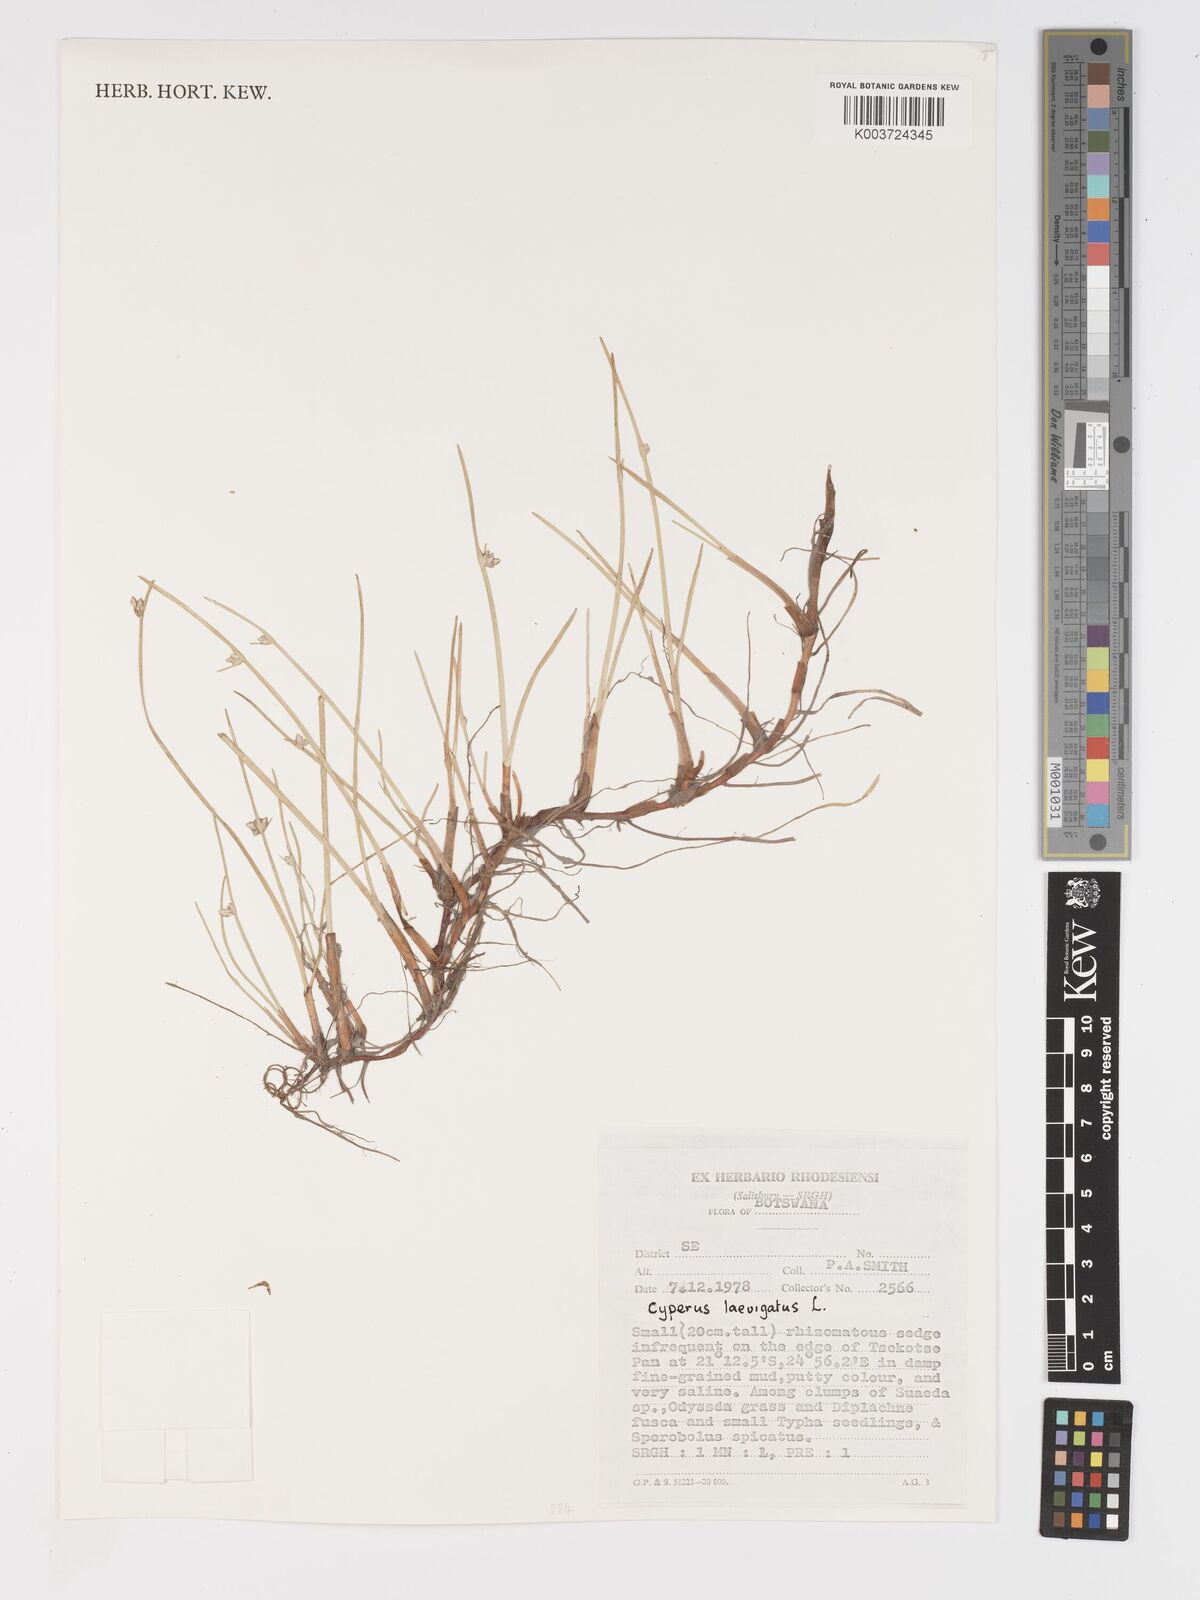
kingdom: Plantae
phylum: Tracheophyta
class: Liliopsida
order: Poales
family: Cyperaceae
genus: Cyperus
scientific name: Cyperus laevigatus
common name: Smooth flat sedge
